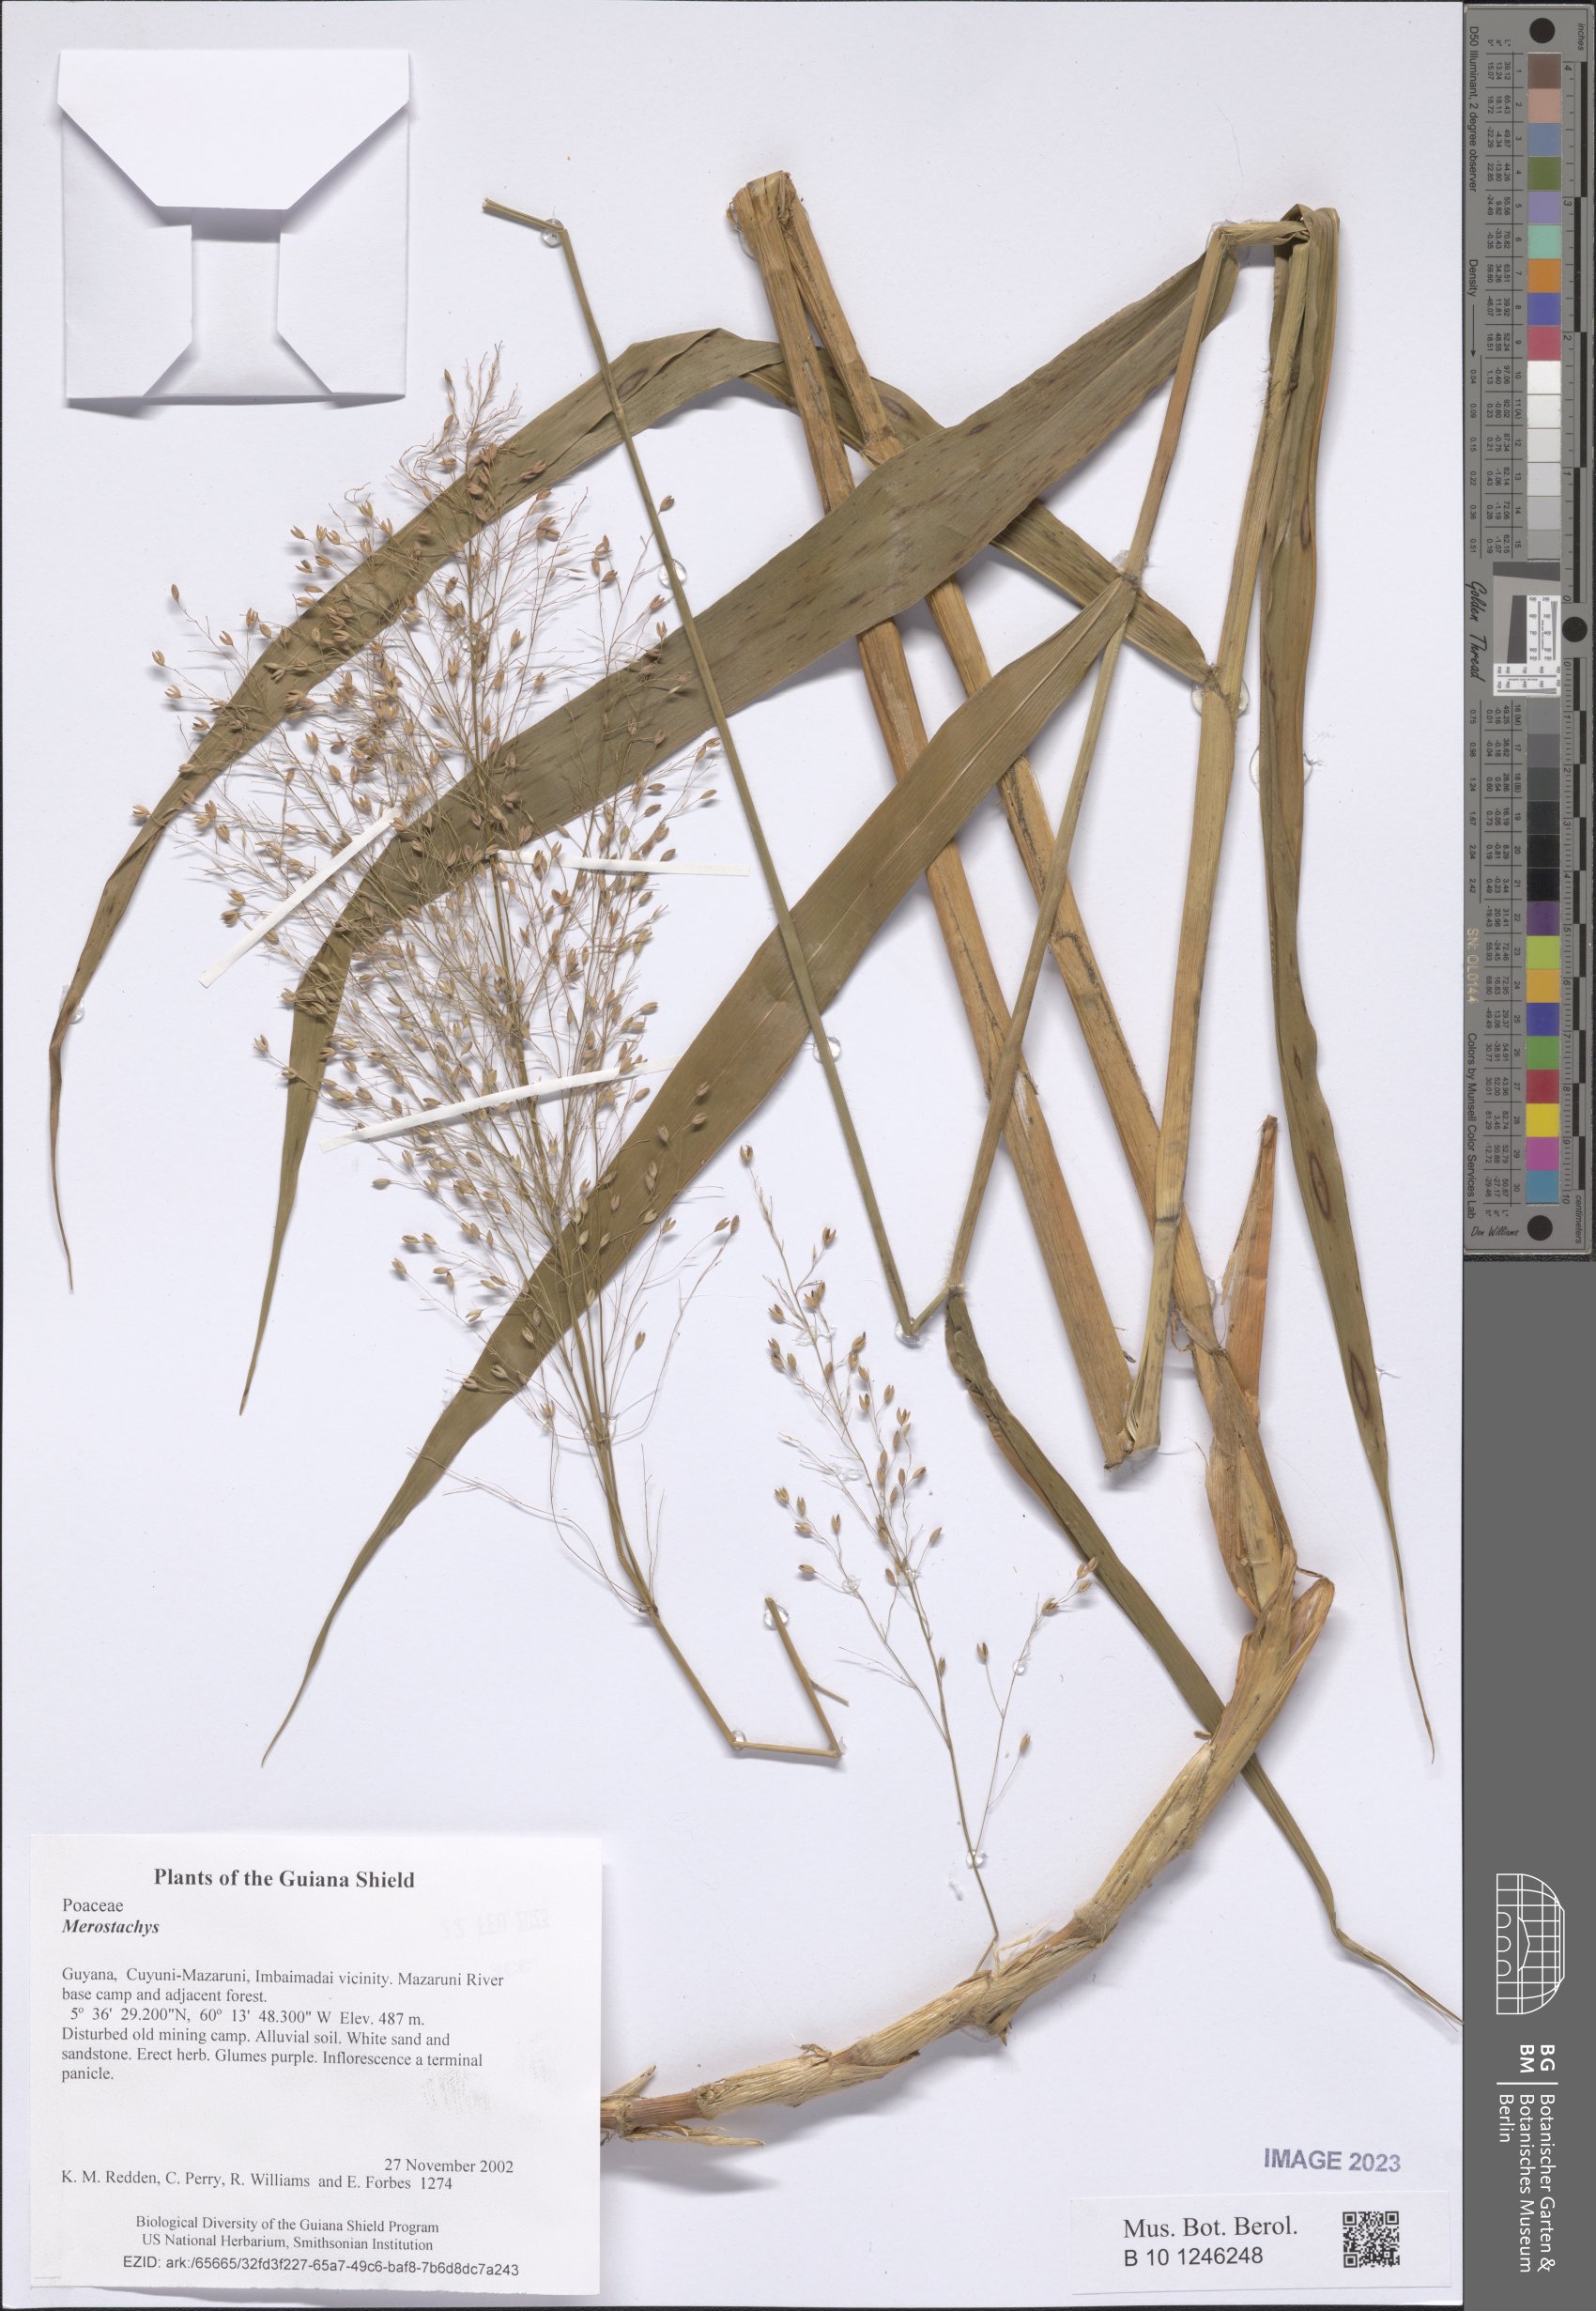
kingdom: Plantae
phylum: Tracheophyta
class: Liliopsida
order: Poales
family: Poaceae
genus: Merostachys
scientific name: Merostachys
